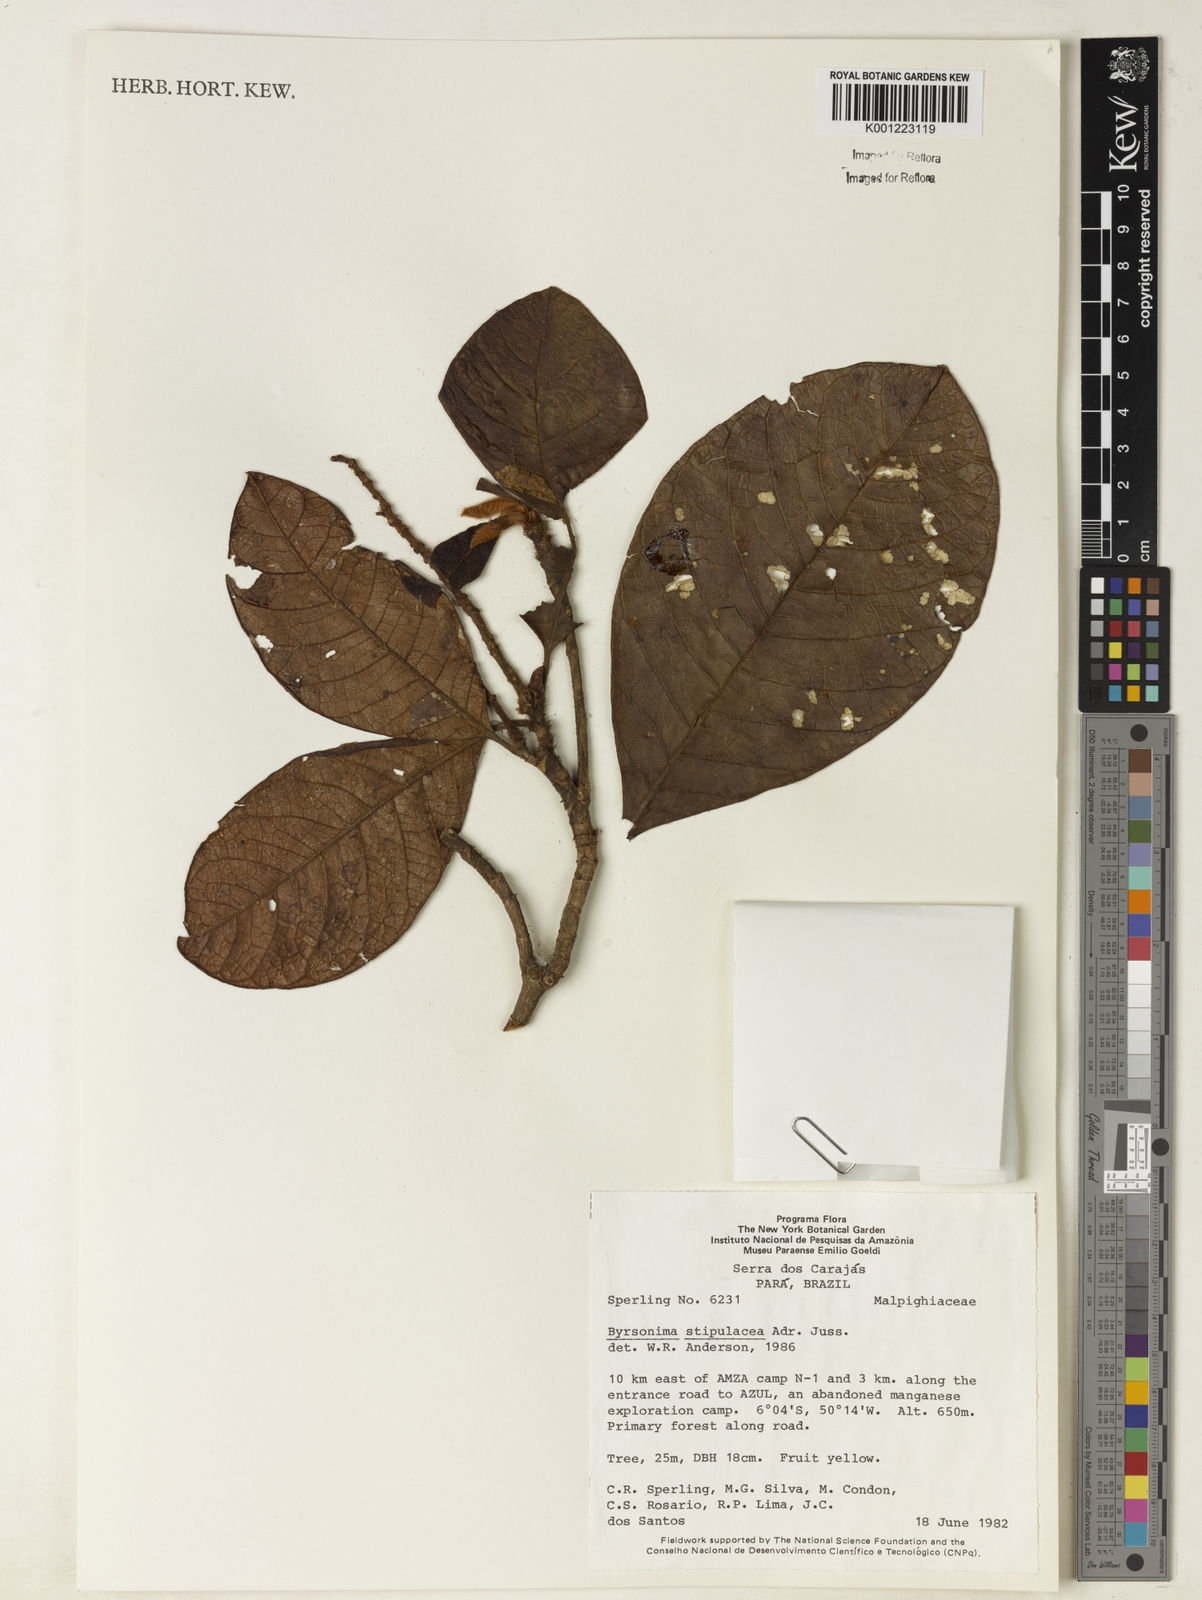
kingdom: Plantae
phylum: Tracheophyta
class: Magnoliopsida
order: Malpighiales
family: Malpighiaceae
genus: Byrsonima
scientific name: Byrsonima stipulacea
